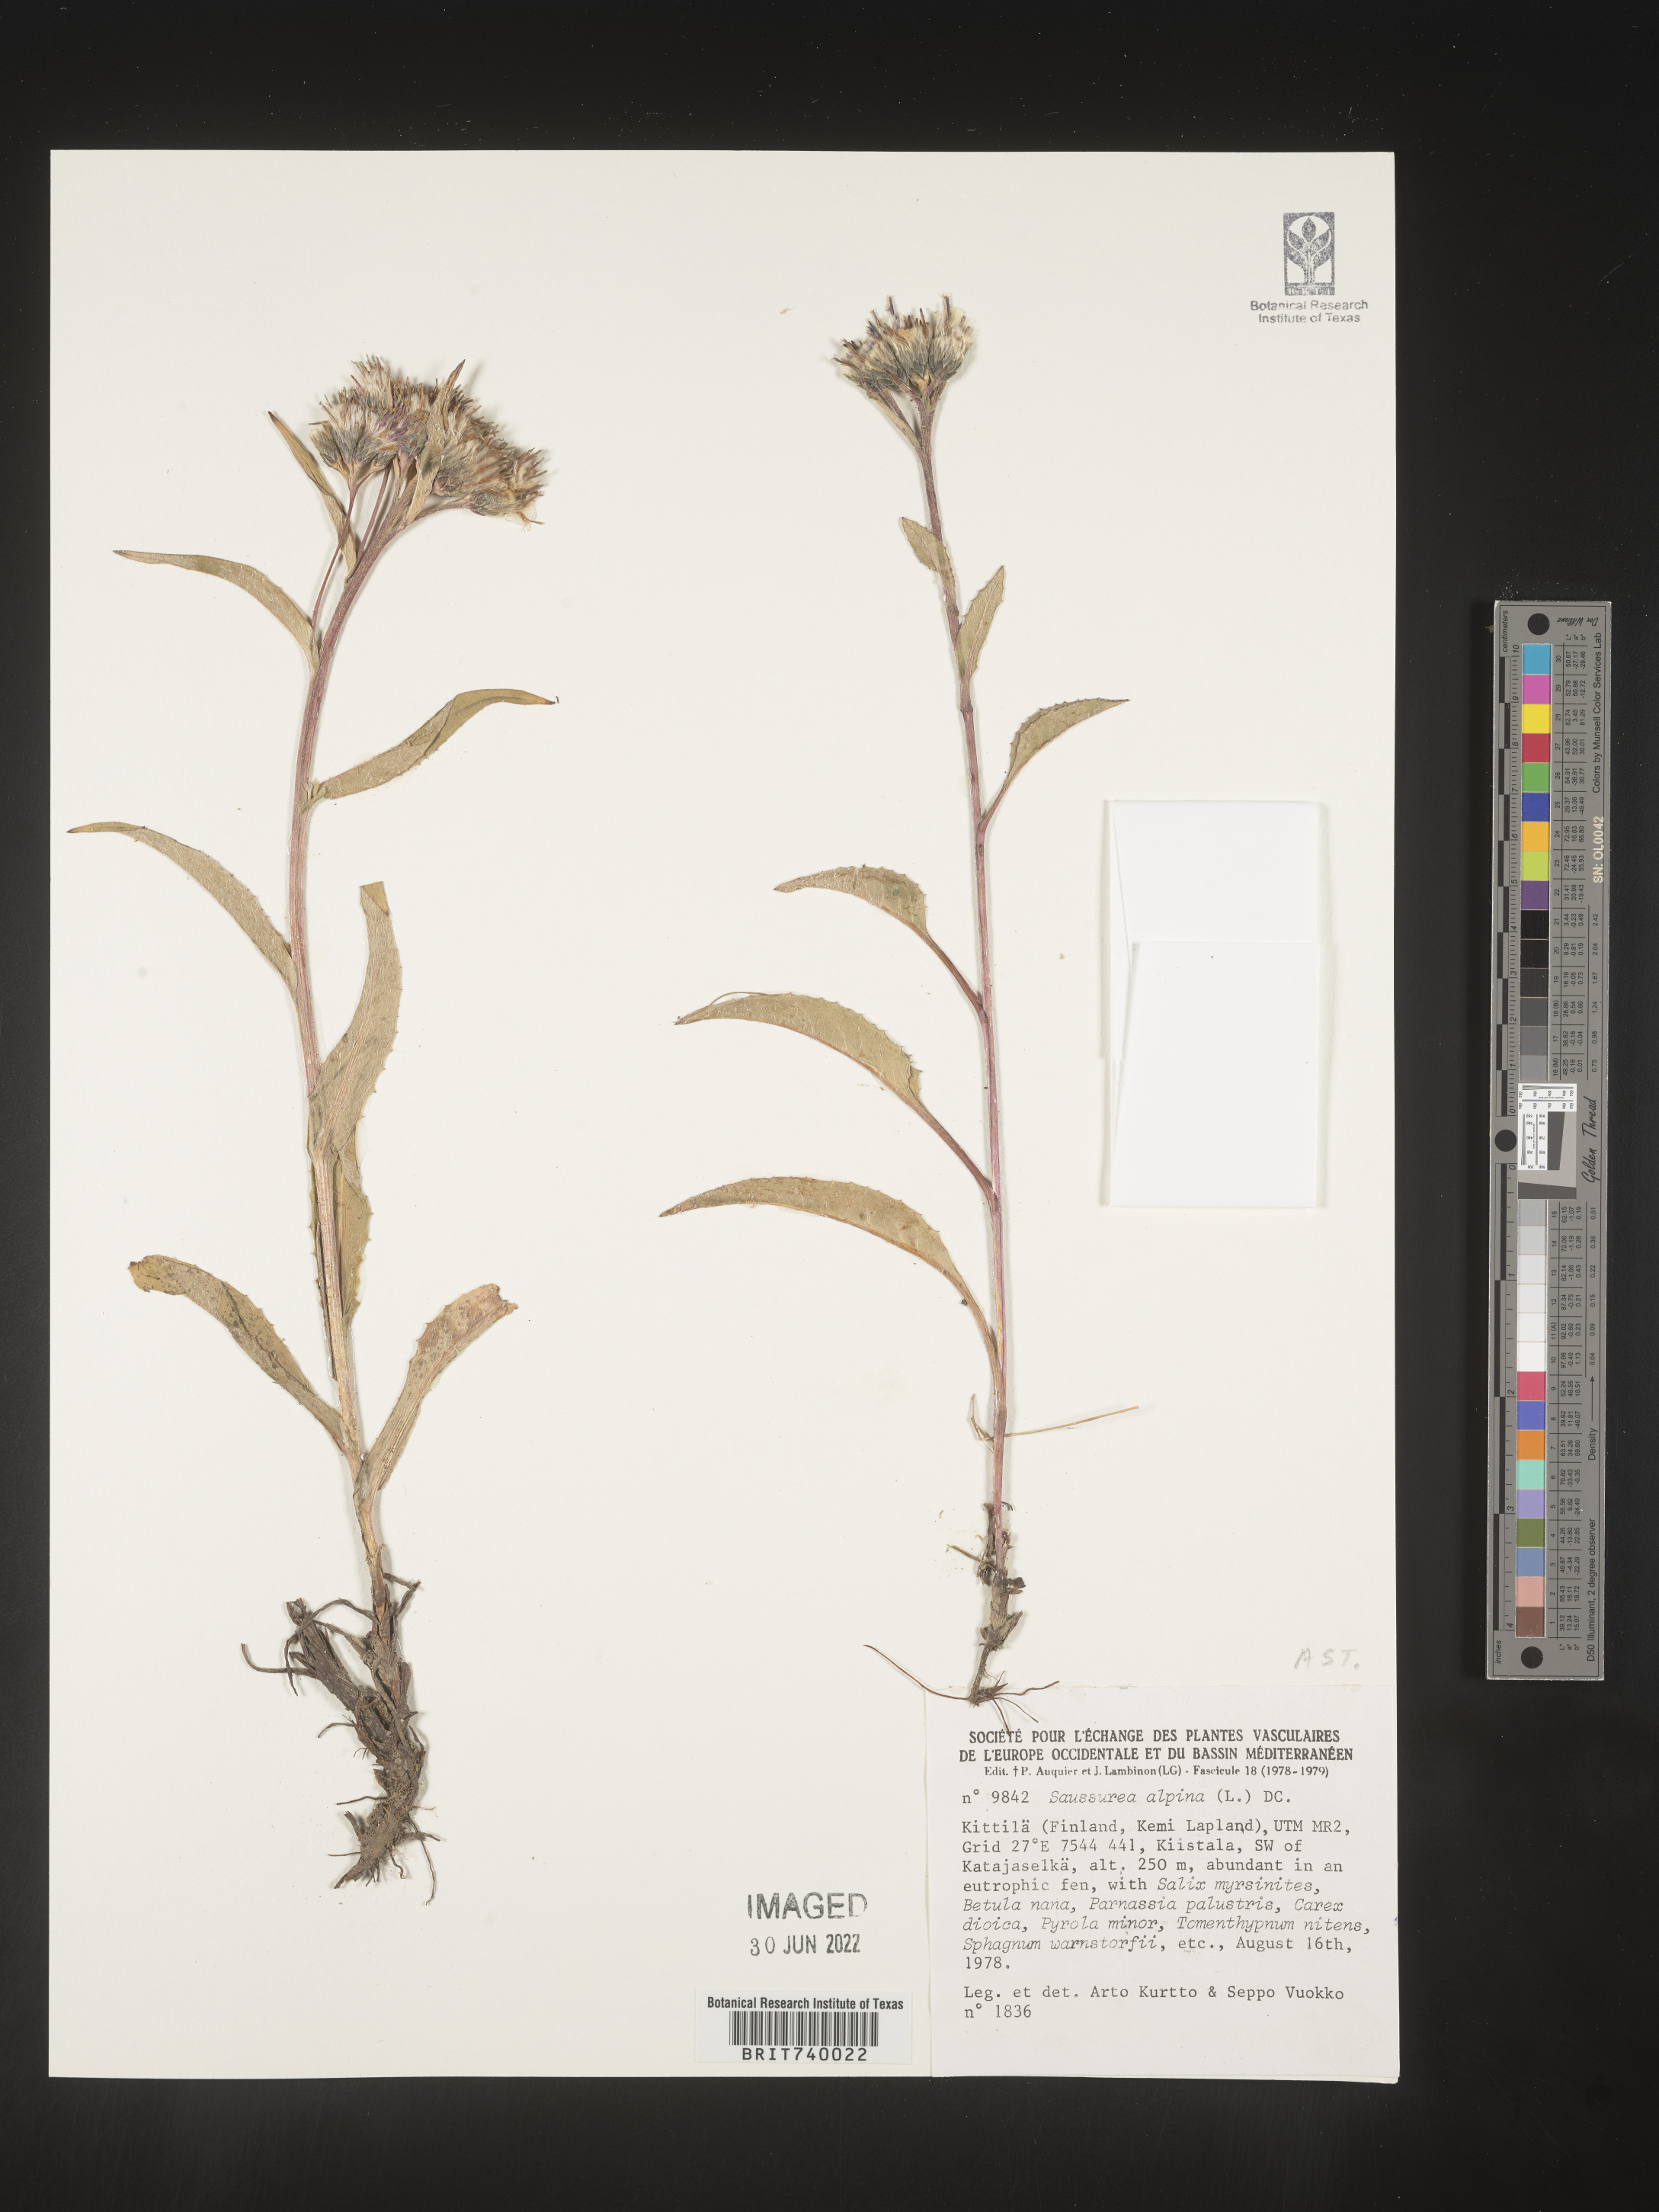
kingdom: Plantae
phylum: Tracheophyta
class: Magnoliopsida
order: Asterales
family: Asteraceae
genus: Saussurea
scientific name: Saussurea
